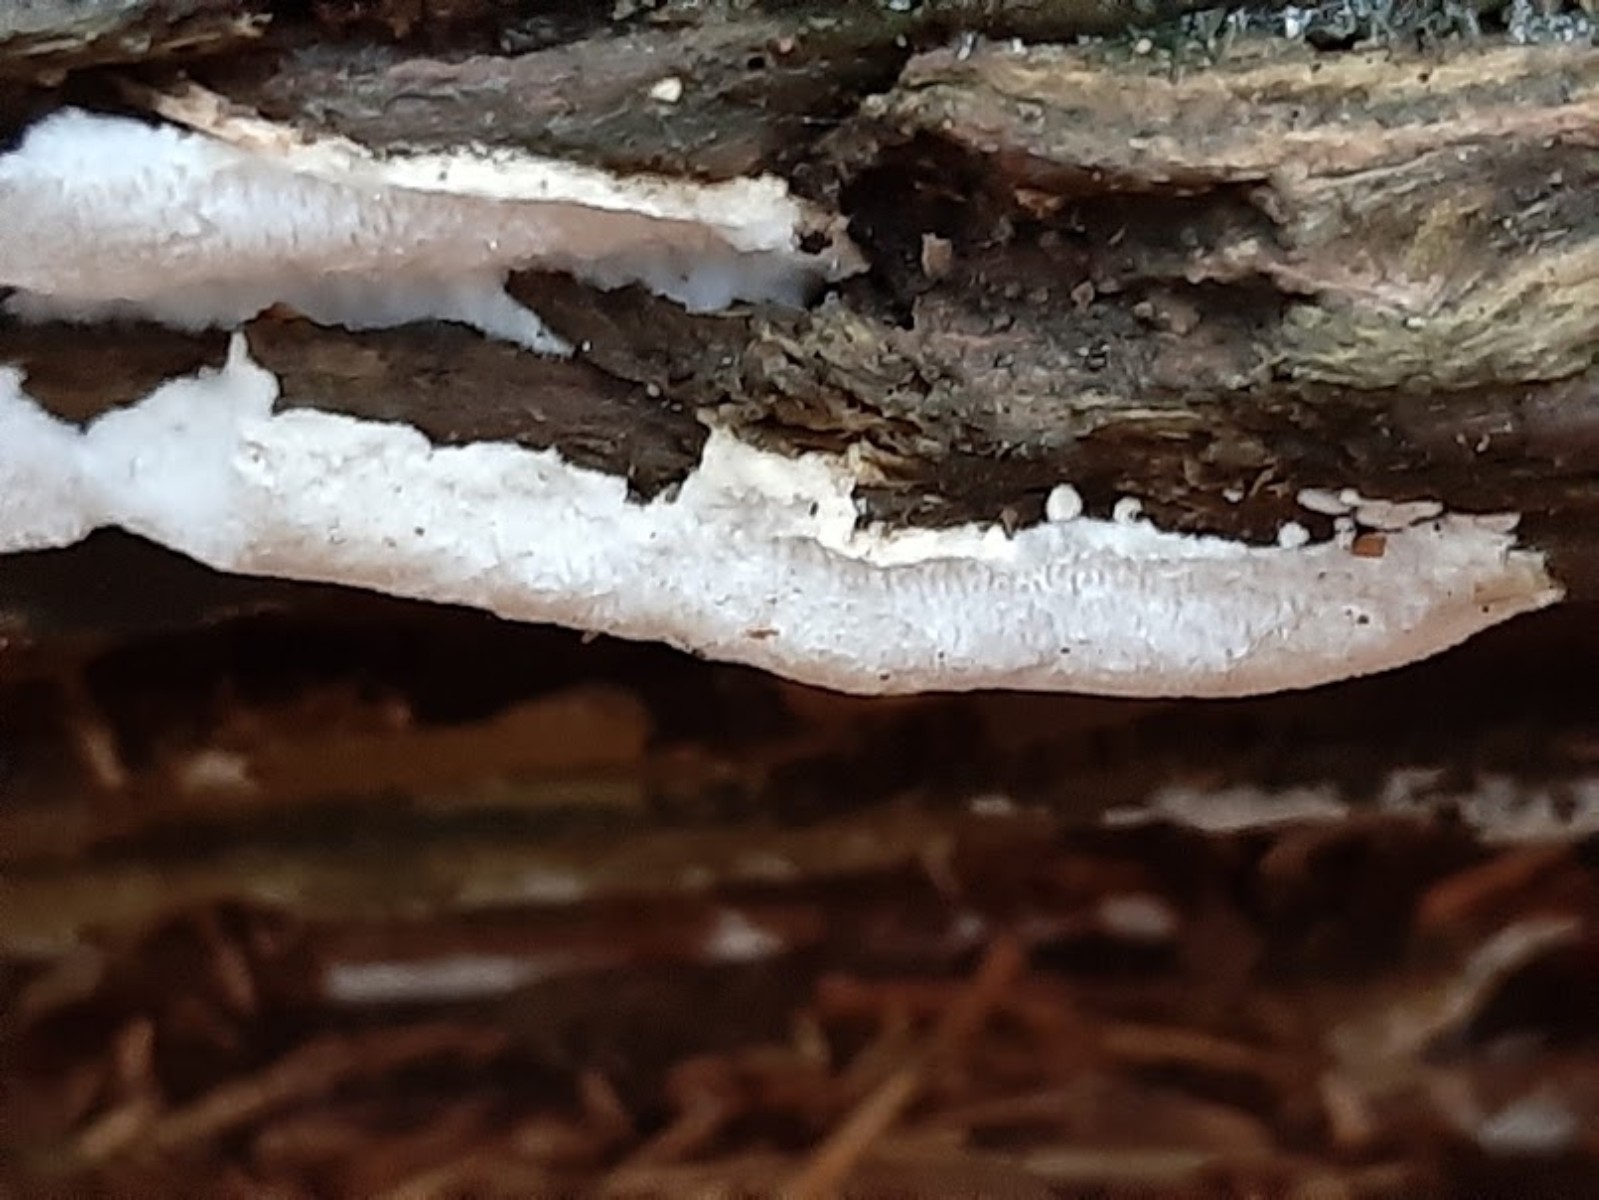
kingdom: Fungi
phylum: Basidiomycota
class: Agaricomycetes
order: Polyporales
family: Polyporaceae
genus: Trametes
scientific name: Trametes gibbosa
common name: puklet læderporesvamp
